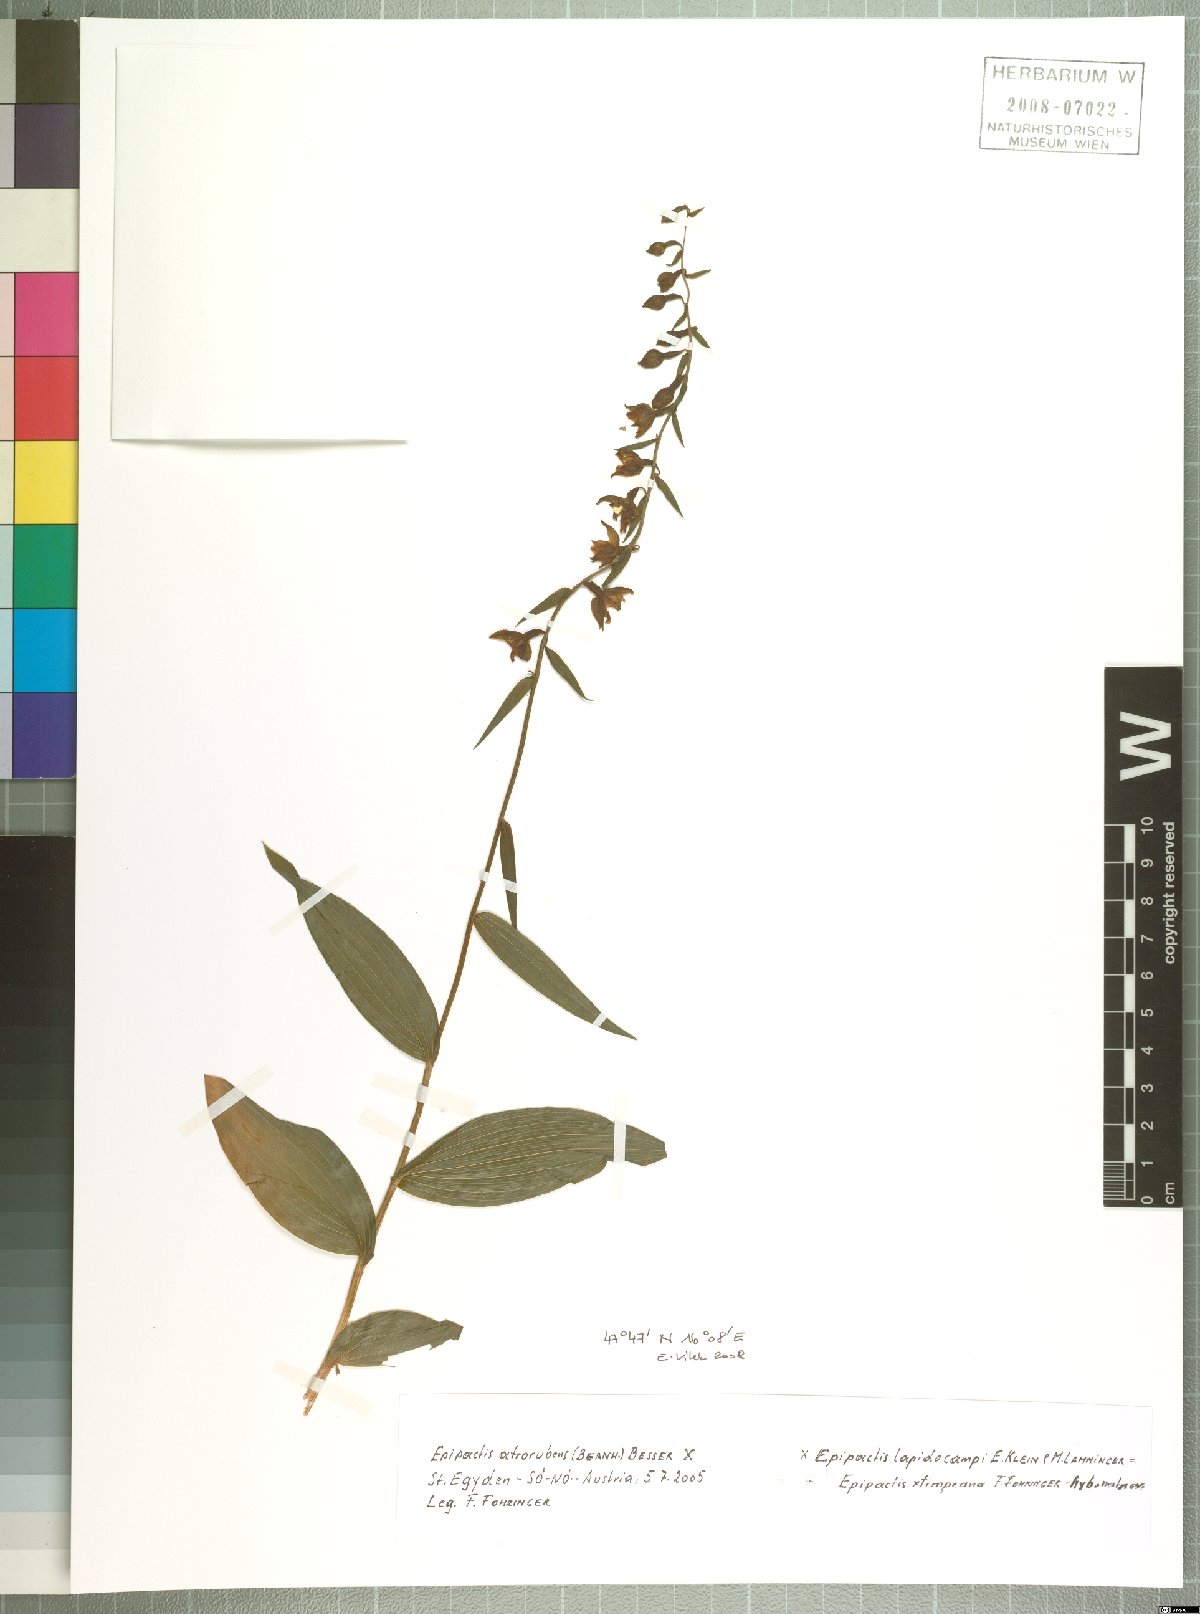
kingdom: Plantae
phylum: Tracheophyta
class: Liliopsida
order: Asparagales
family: Orchidaceae
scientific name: Orchidaceae
